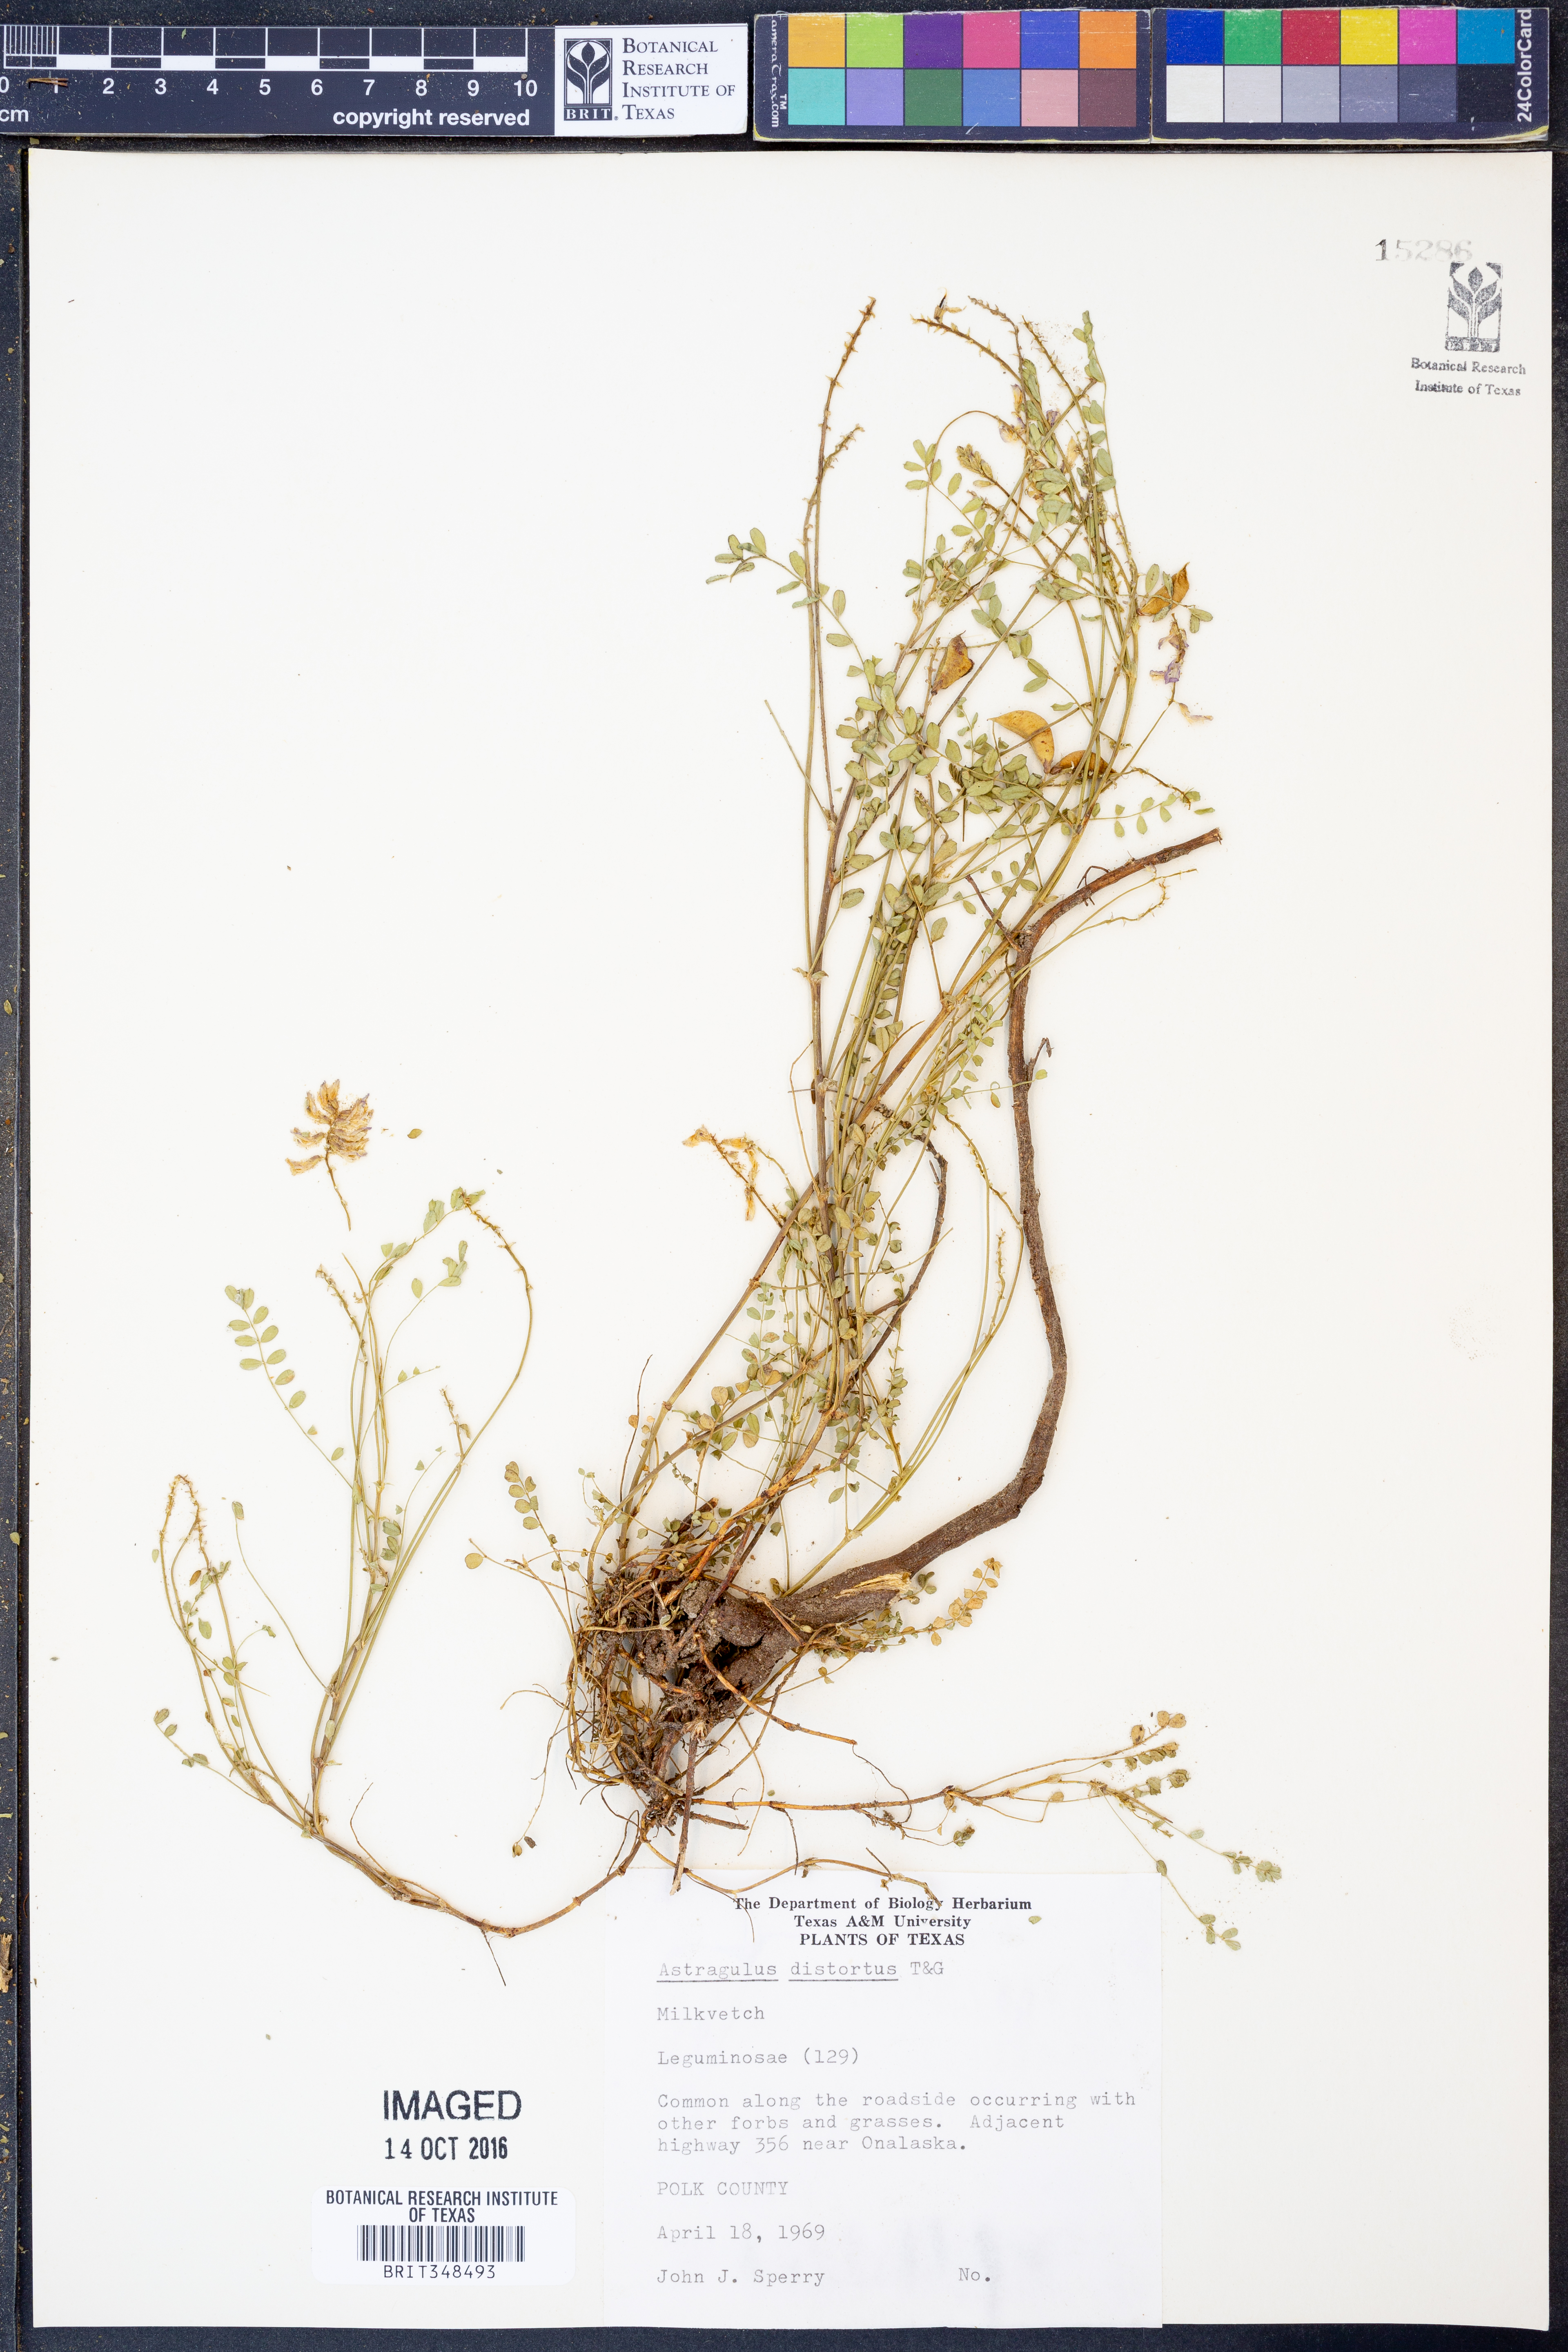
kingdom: Plantae
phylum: Tracheophyta
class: Magnoliopsida
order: Fabales
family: Fabaceae
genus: Astragalus
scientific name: Astragalus distortus
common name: Ozark milk-vetch
